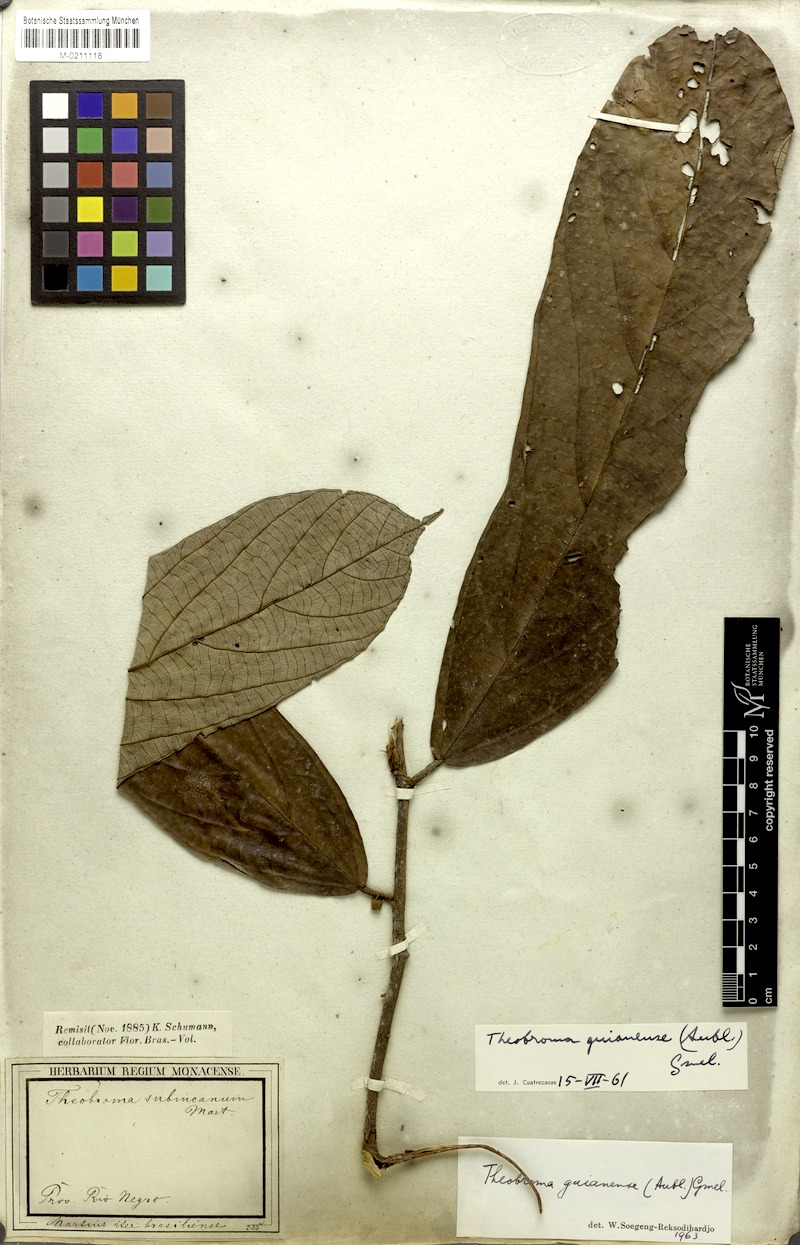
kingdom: Plantae
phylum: Tracheophyta
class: Magnoliopsida
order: Malvales
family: Malvaceae
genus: Theobroma
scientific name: Theobroma subincanum
